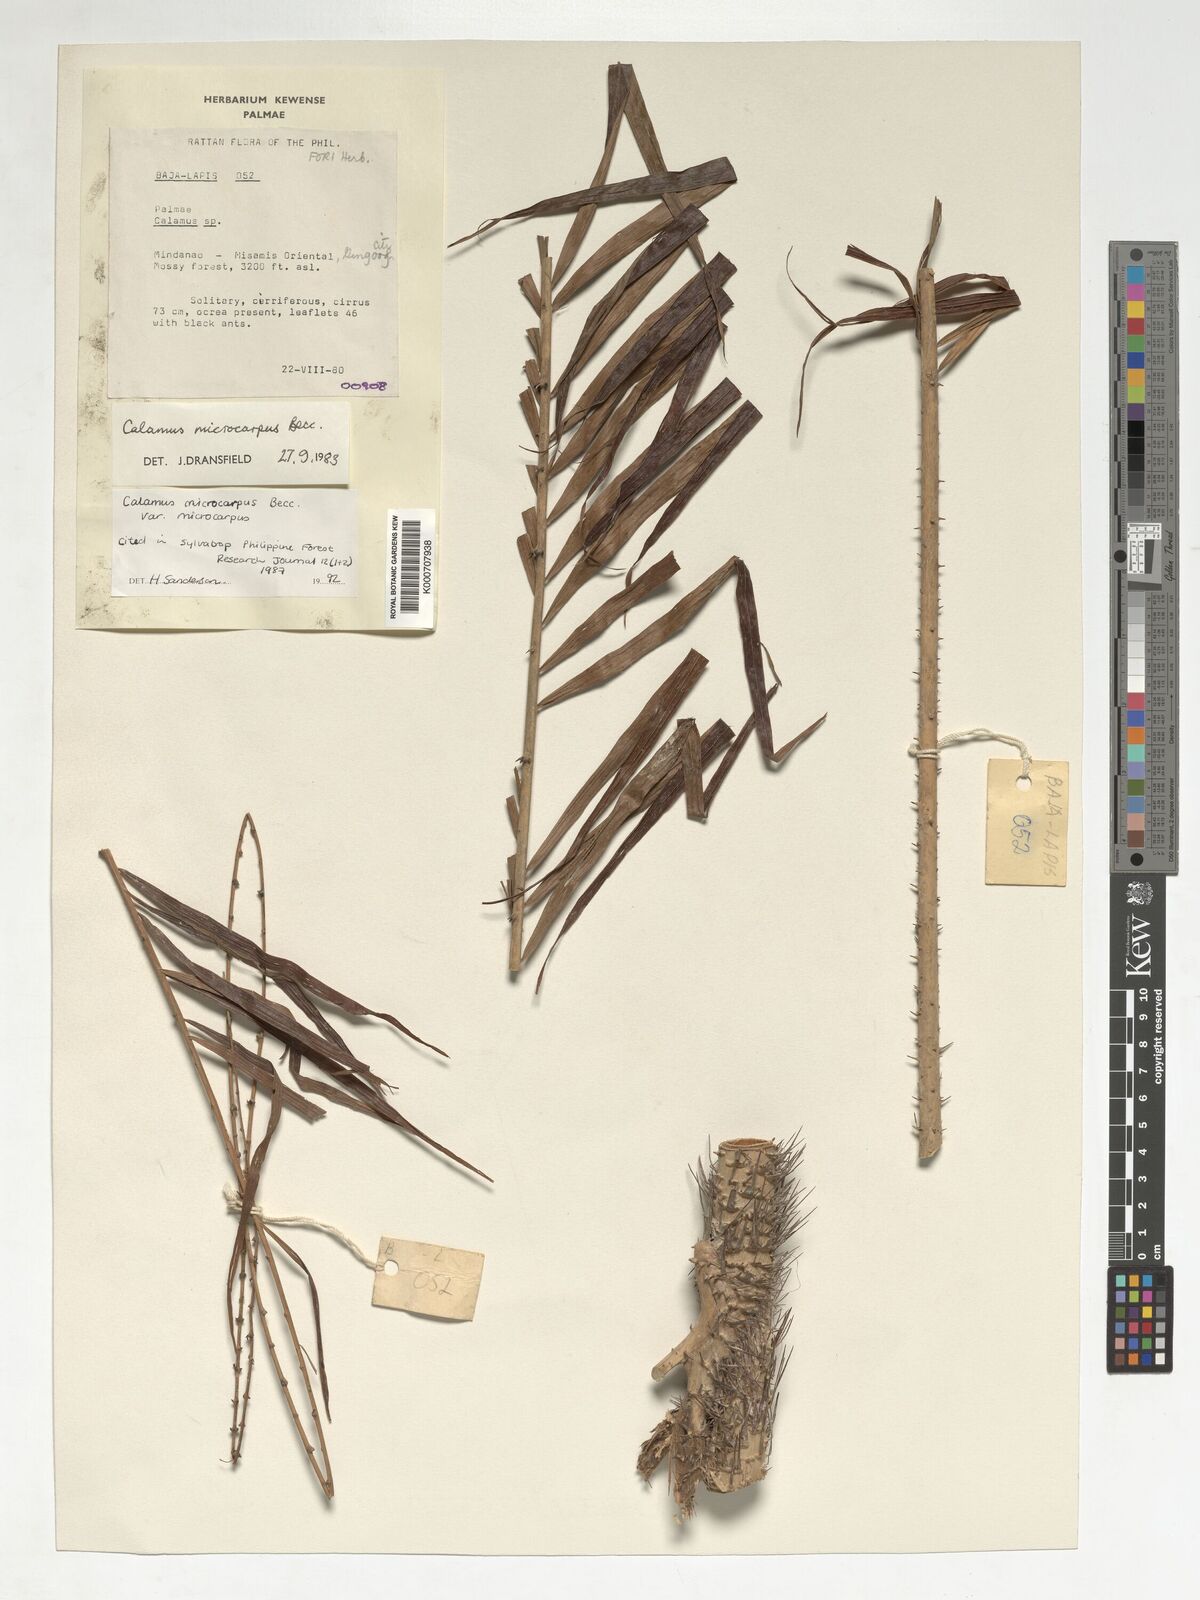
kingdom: Plantae
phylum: Tracheophyta
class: Liliopsida
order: Arecales
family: Arecaceae
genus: Calamus
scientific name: Calamus siphonospathus
